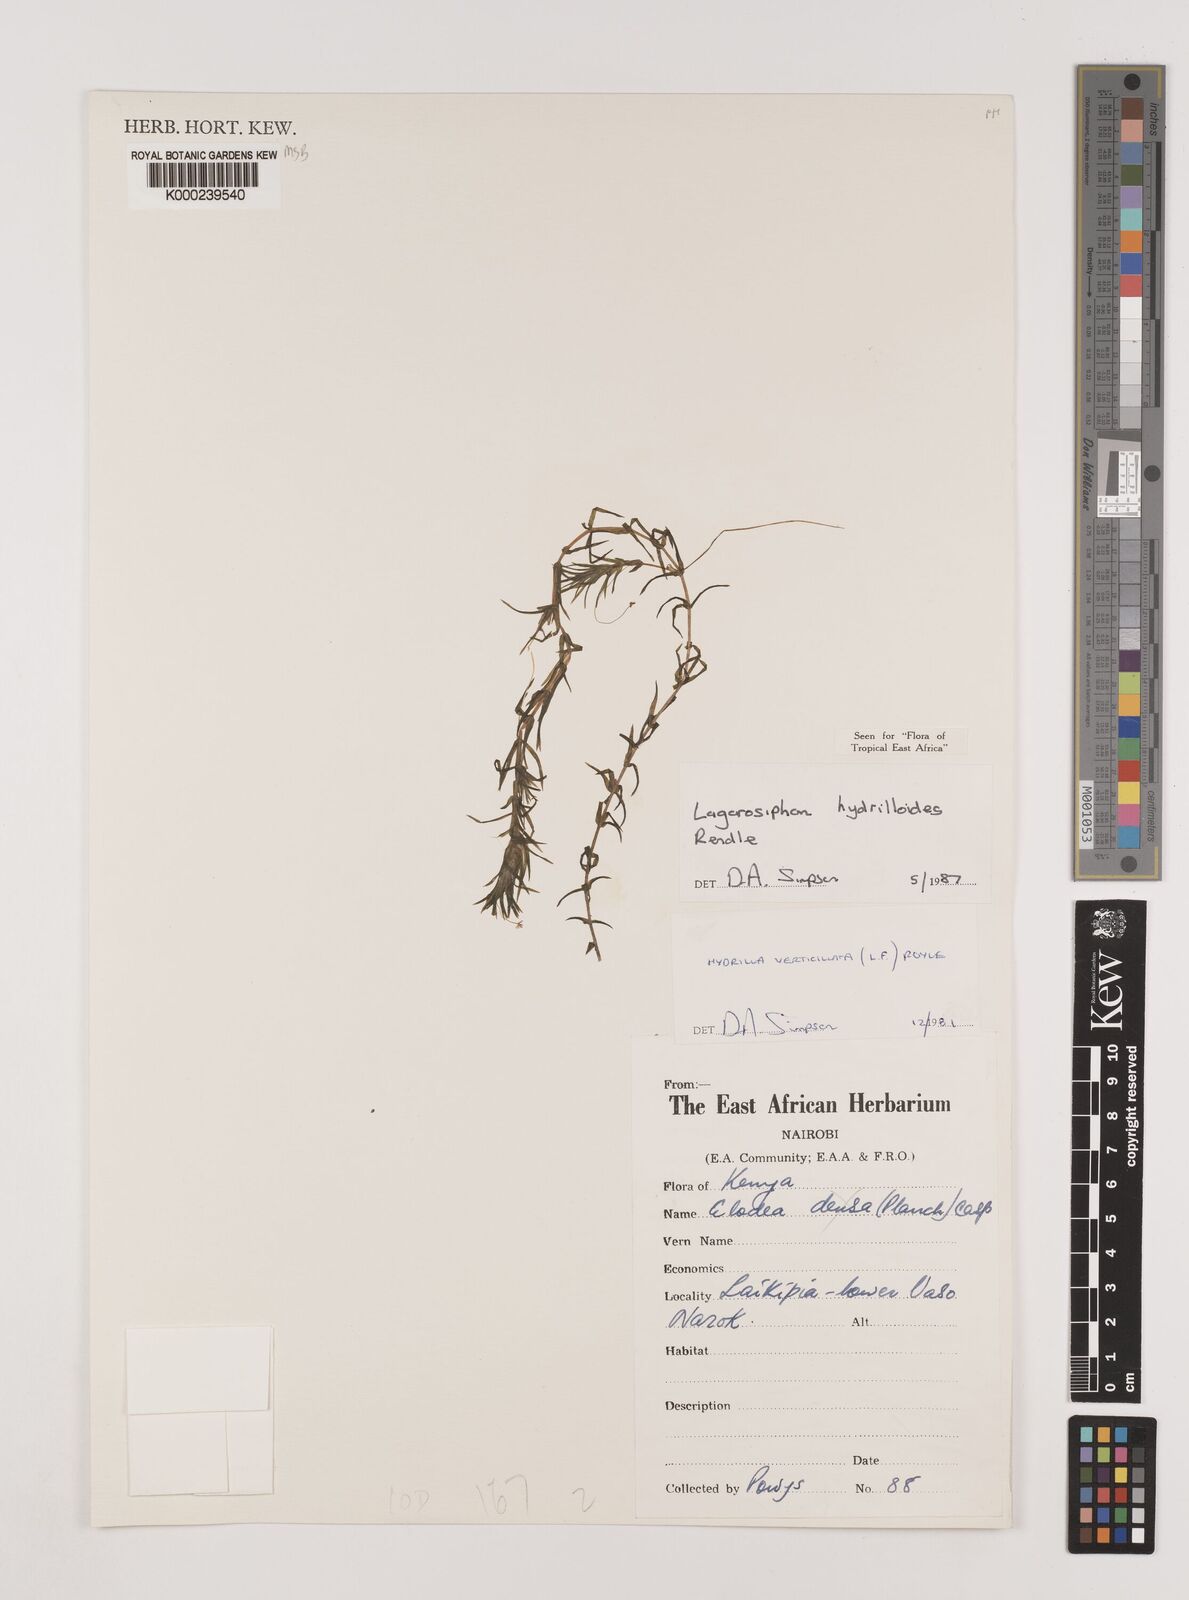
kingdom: Plantae
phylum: Tracheophyta
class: Liliopsida
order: Alismatales
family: Hydrocharitaceae
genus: Lagarosiphon
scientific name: Lagarosiphon hydrilloides
